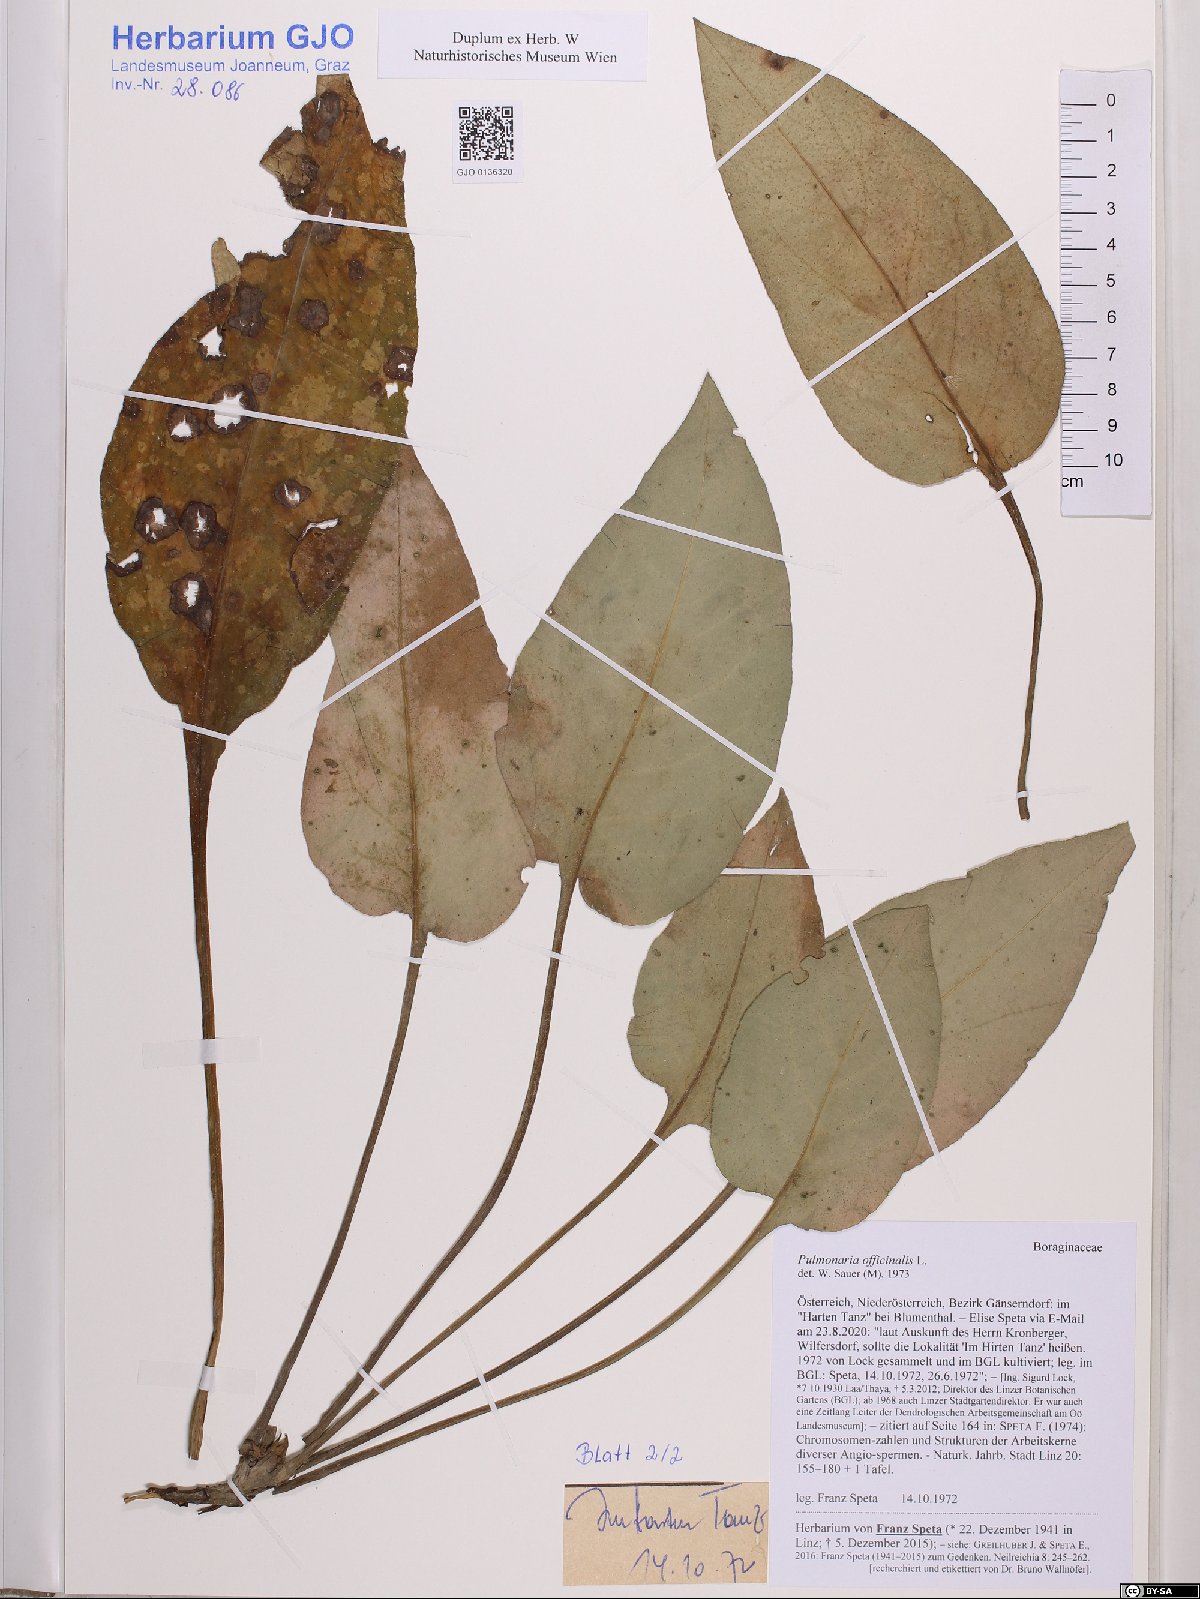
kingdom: Plantae
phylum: Tracheophyta
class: Magnoliopsida
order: Boraginales
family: Boraginaceae
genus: Pulmonaria
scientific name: Pulmonaria officinalis
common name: Lungwort
